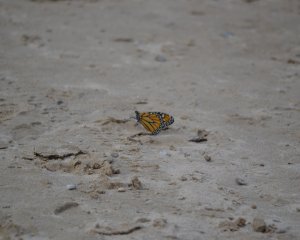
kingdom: Animalia
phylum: Arthropoda
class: Insecta
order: Lepidoptera
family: Nymphalidae
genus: Danaus
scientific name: Danaus plexippus
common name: Monarch
